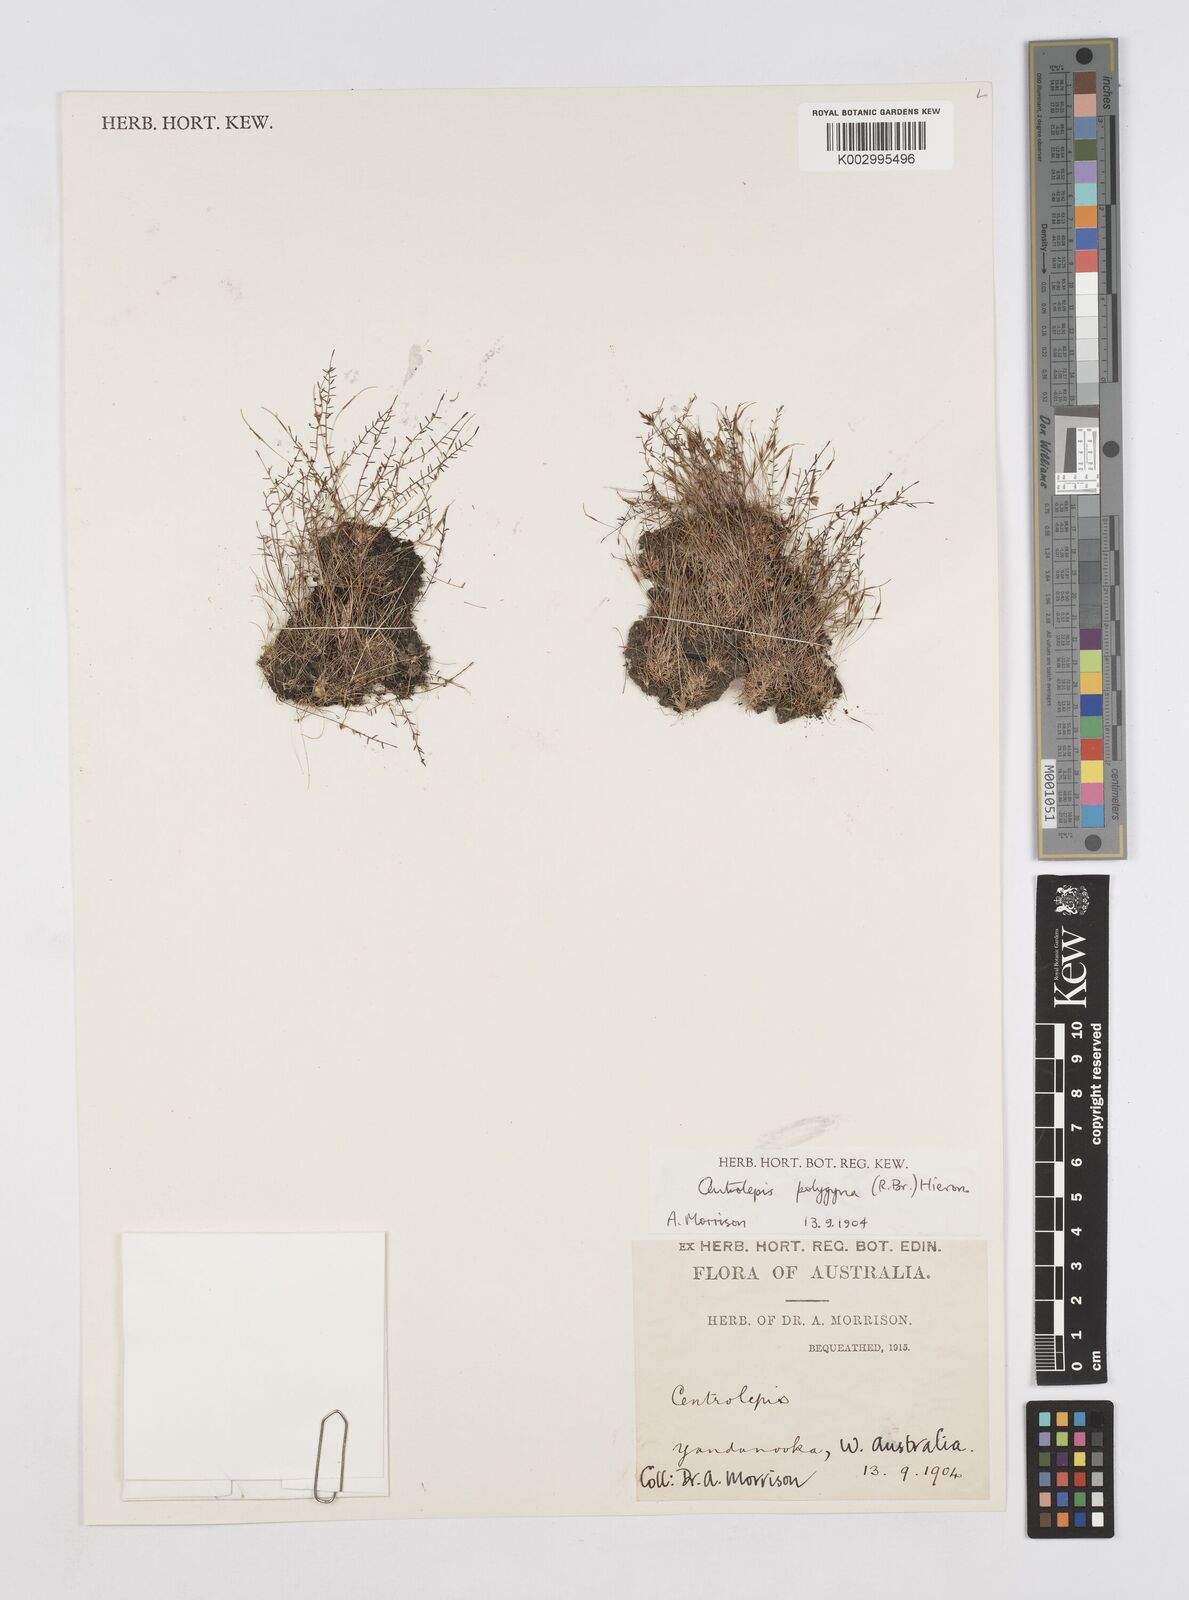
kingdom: Plantae
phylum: Tracheophyta
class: Liliopsida
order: Poales
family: Restionaceae
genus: Centrolepis
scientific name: Centrolepis polygyna
